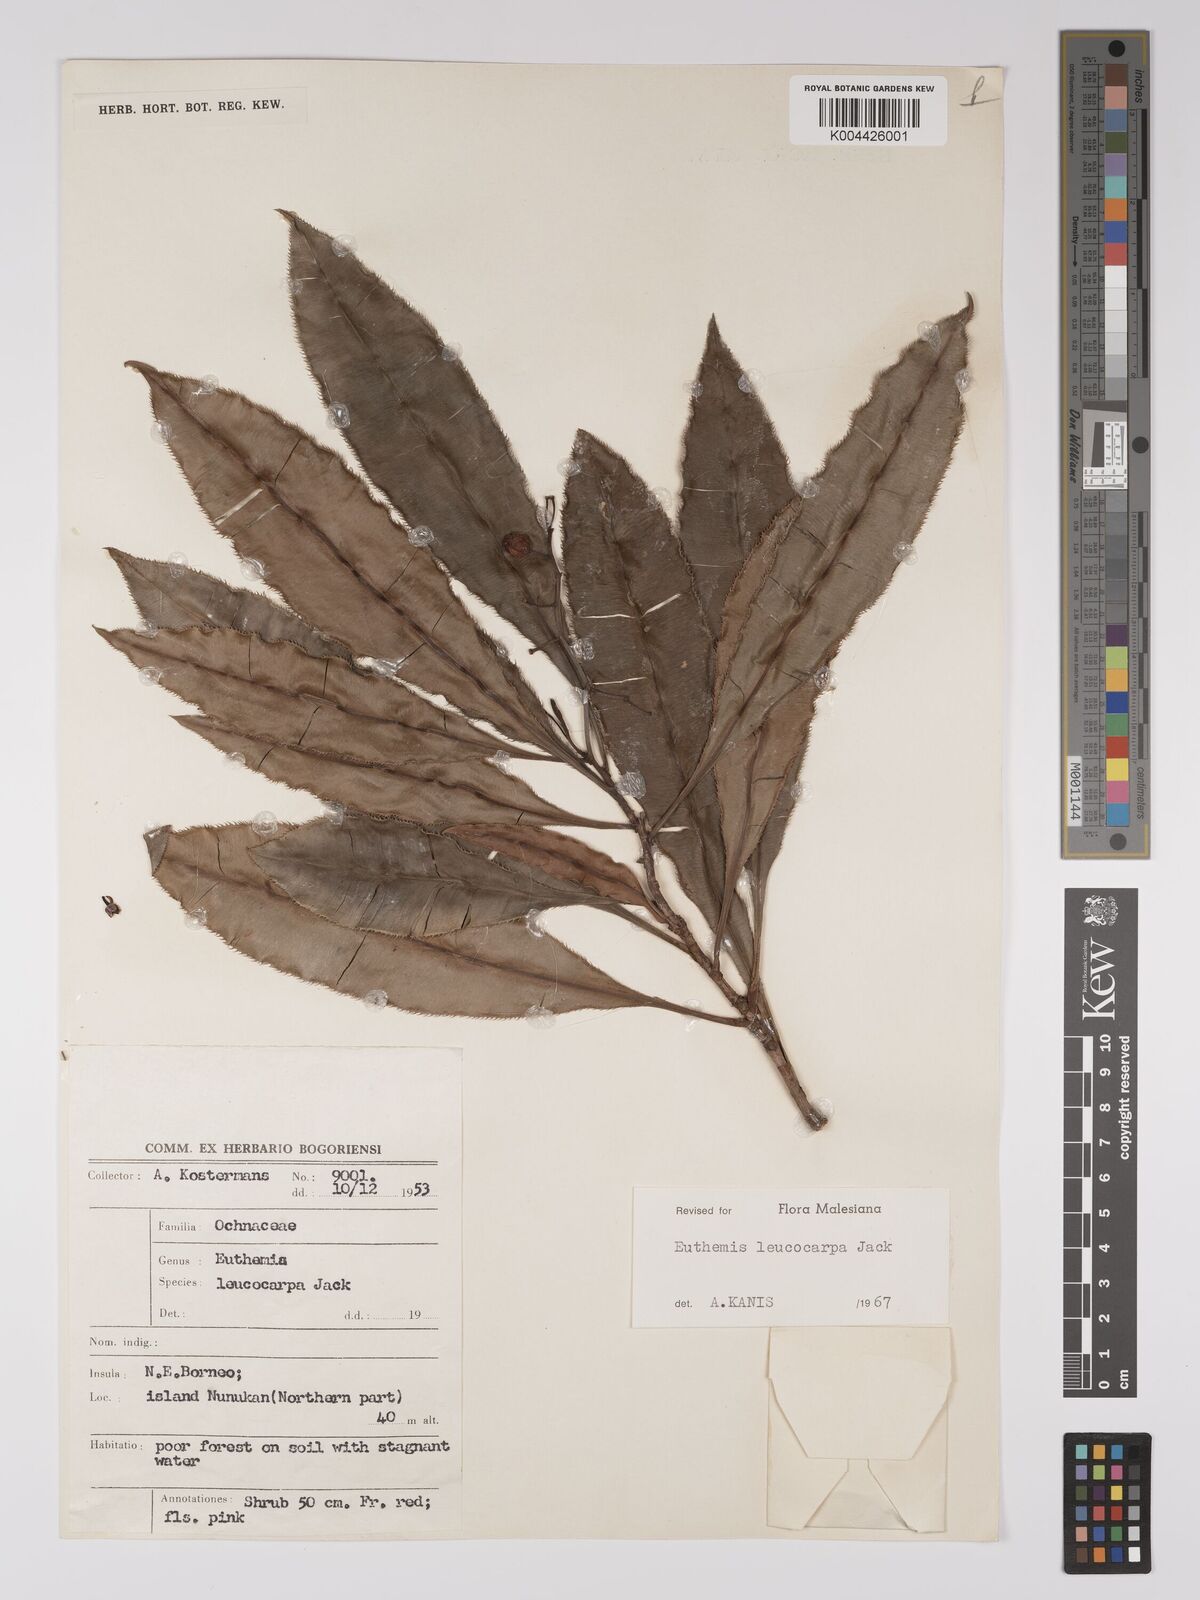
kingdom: Plantae
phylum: Tracheophyta
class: Magnoliopsida
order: Malpighiales
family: Ochnaceae
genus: Euthemis
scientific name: Euthemis leucocarpa
